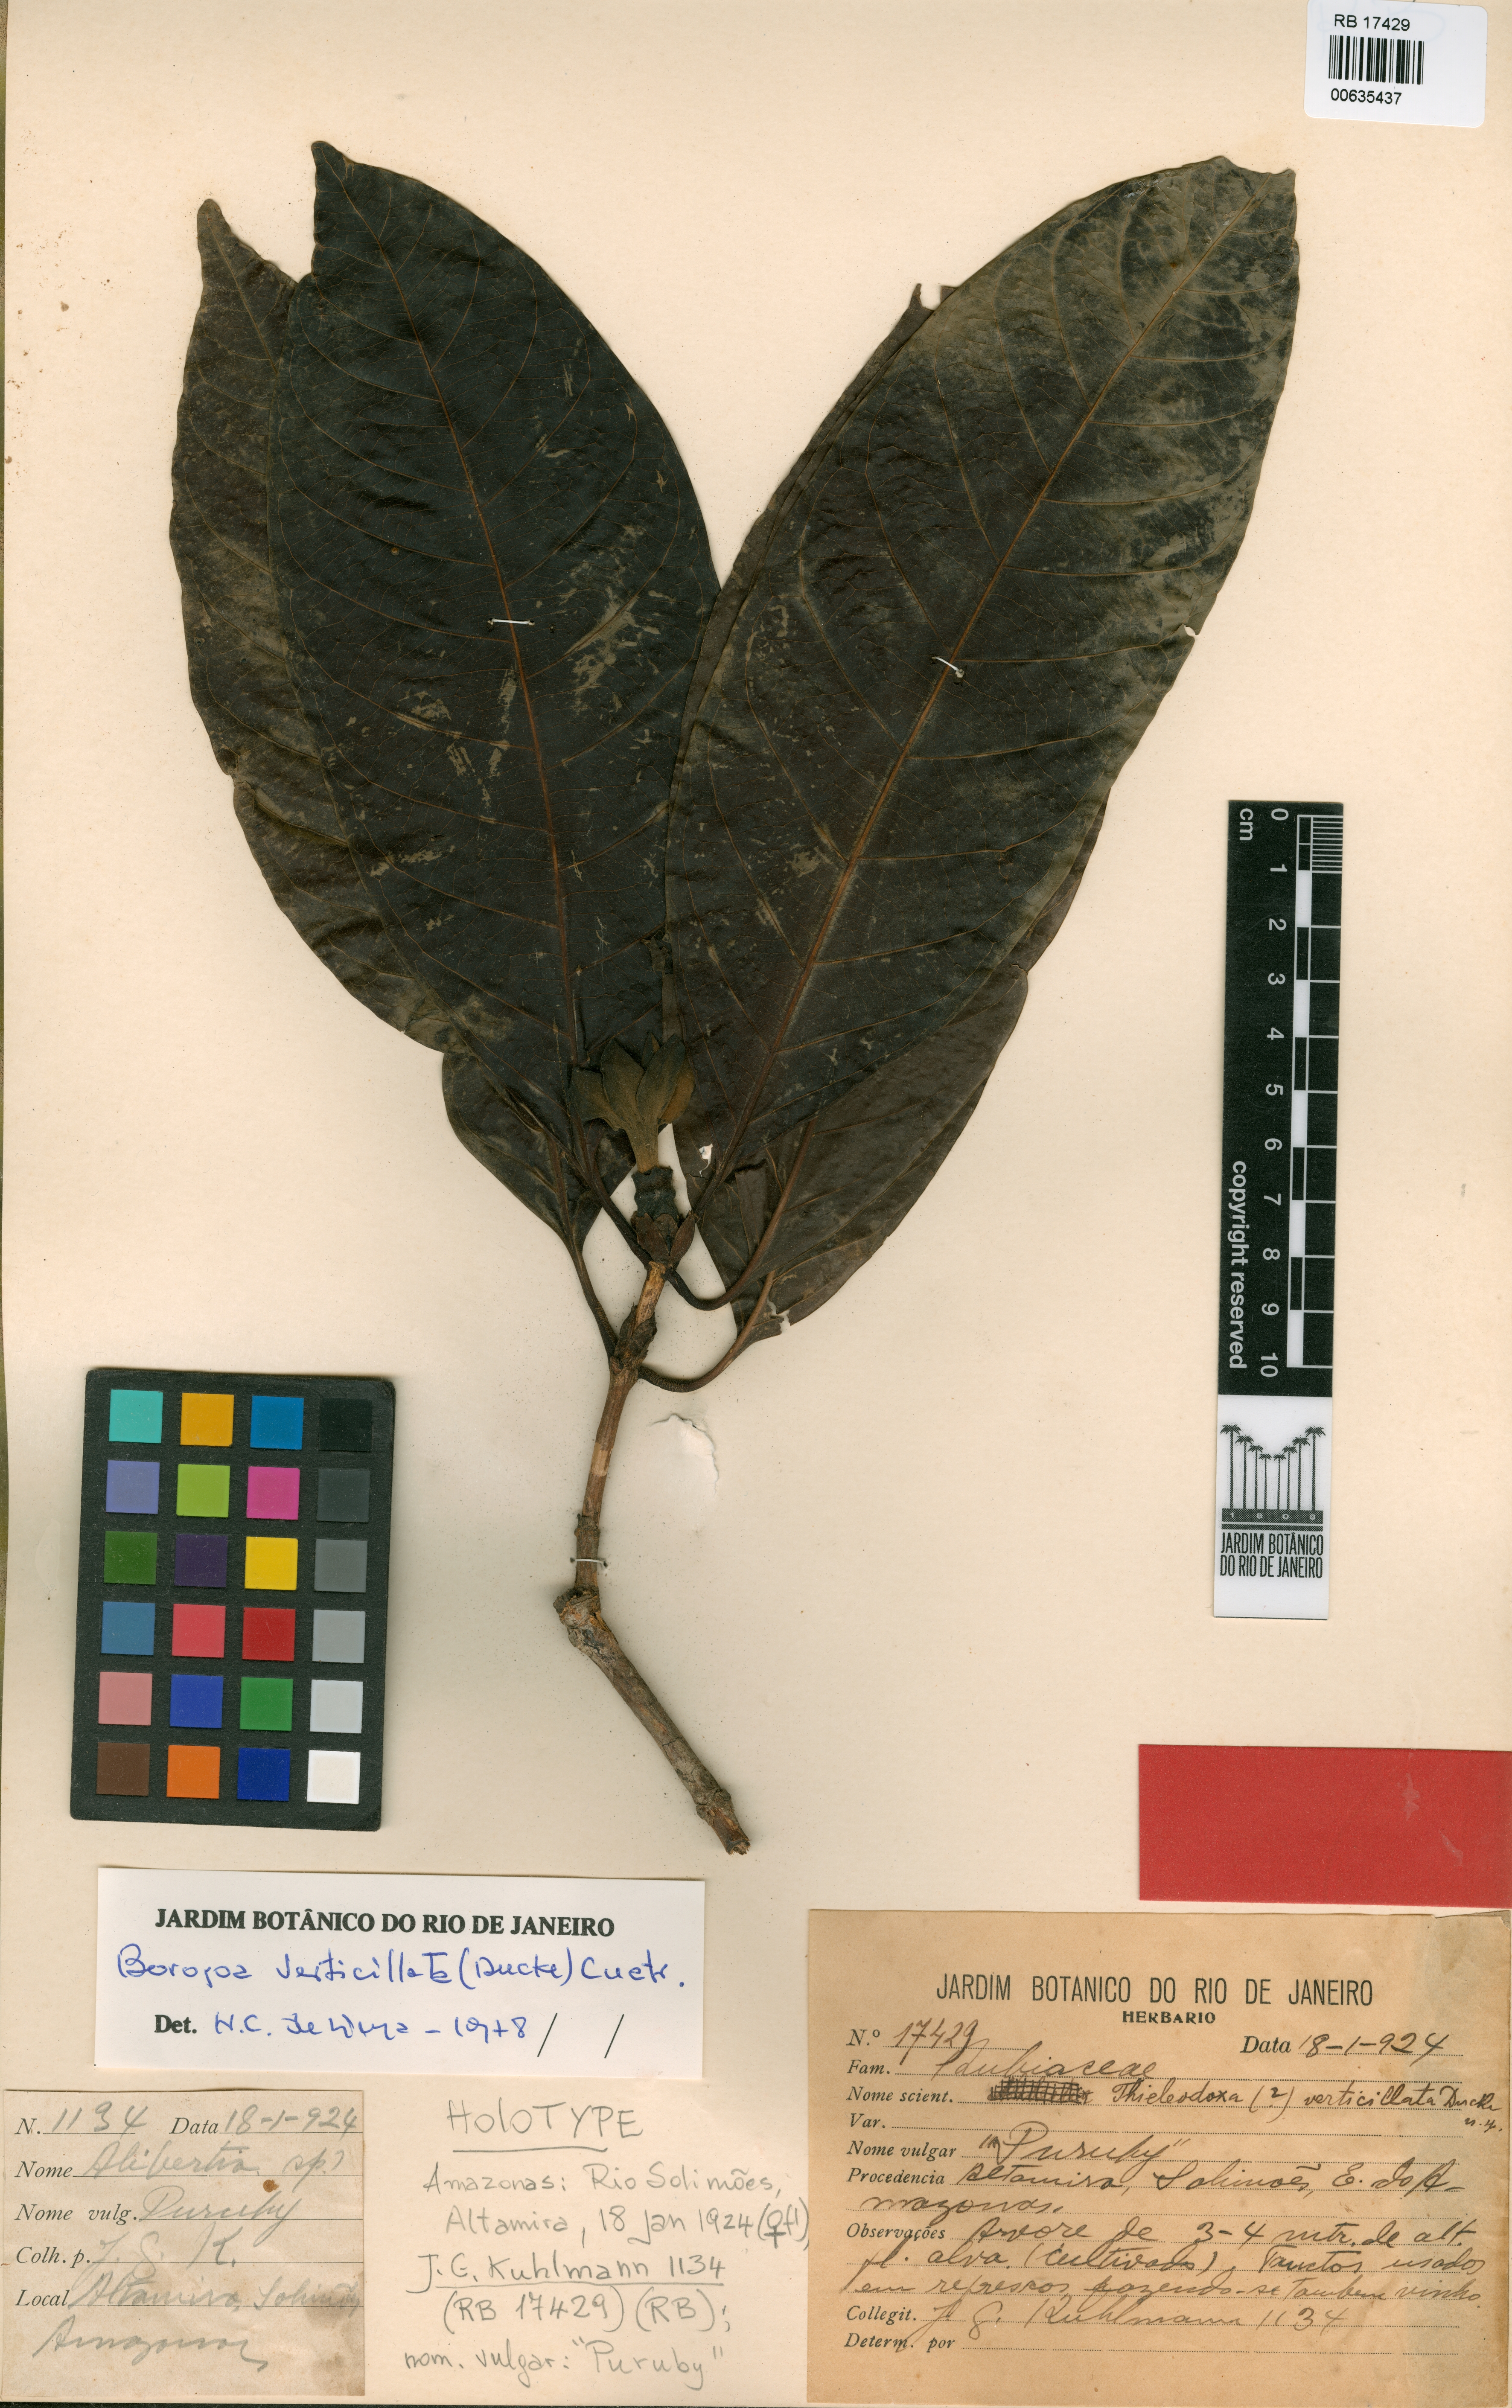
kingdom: Plantae
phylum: Tracheophyta
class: Magnoliopsida
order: Gentianales
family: Rubiaceae
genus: Alibertia
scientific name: Alibertia verticillata
